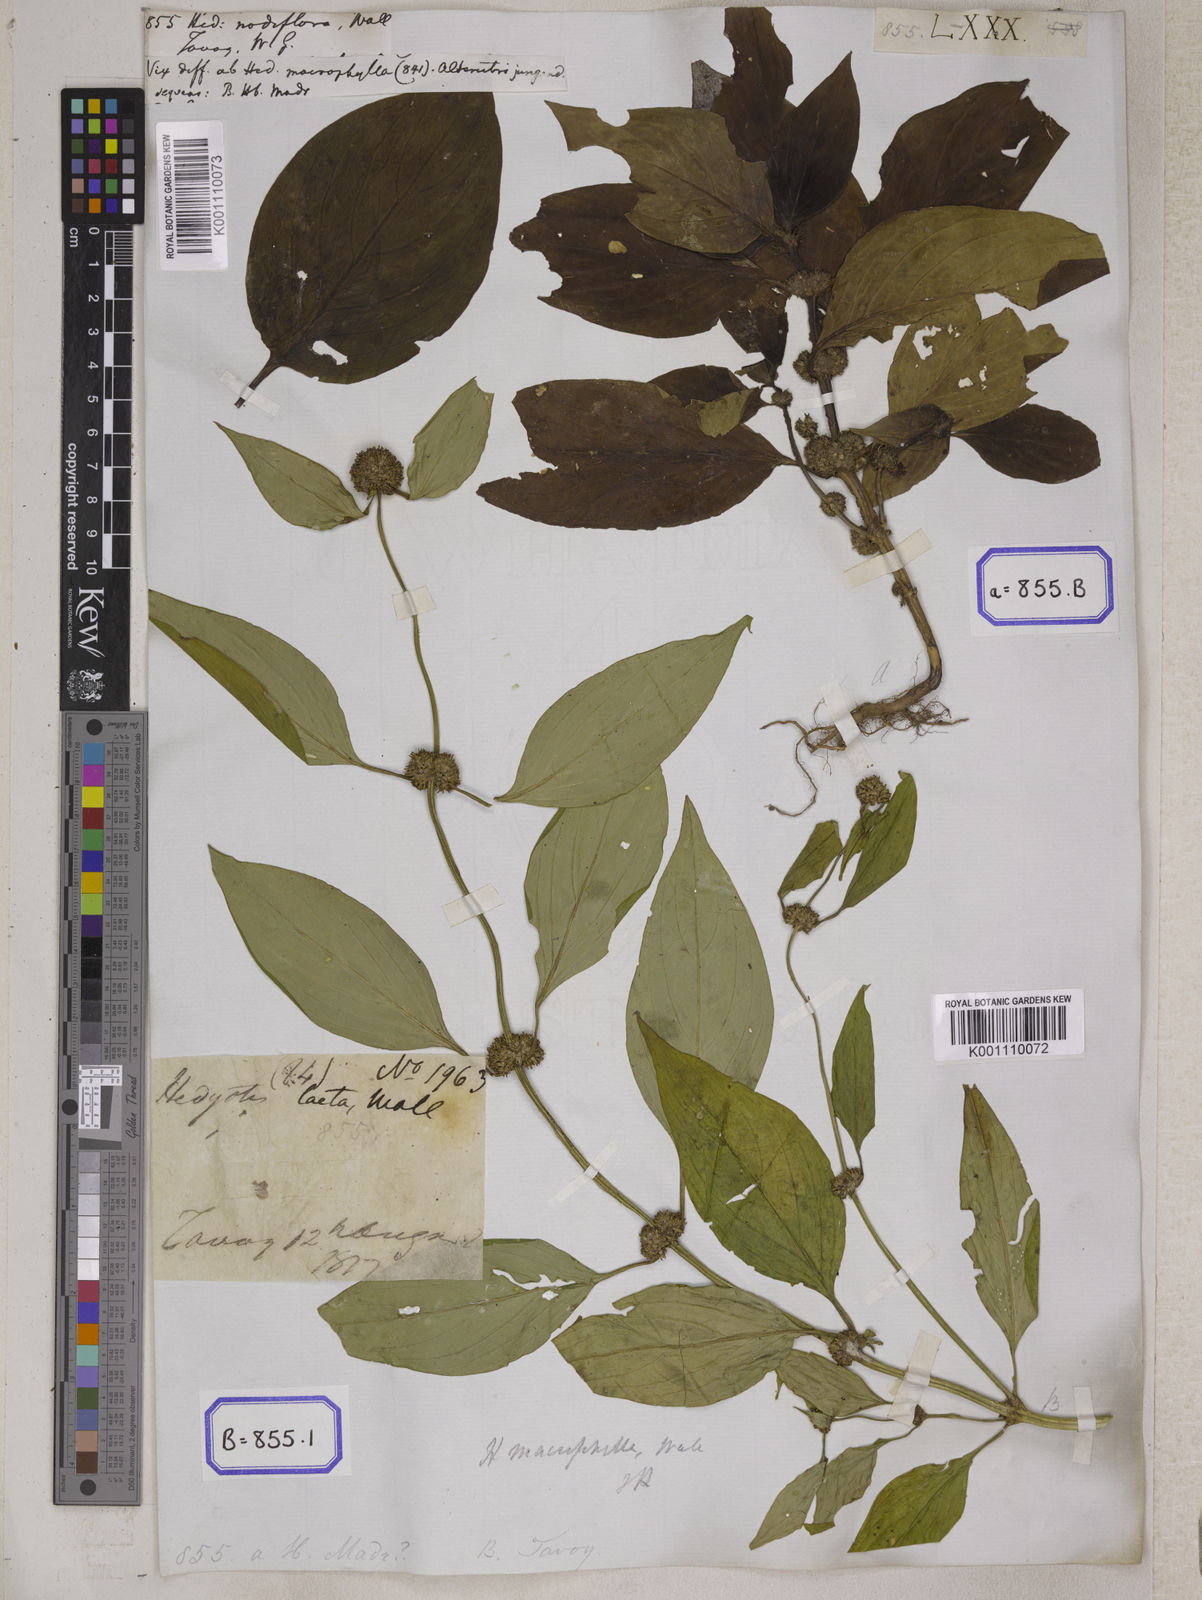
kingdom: Plantae
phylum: Tracheophyta
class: Magnoliopsida
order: Gentianales
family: Rubiaceae
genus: Hedyotis
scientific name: Hedyotis
